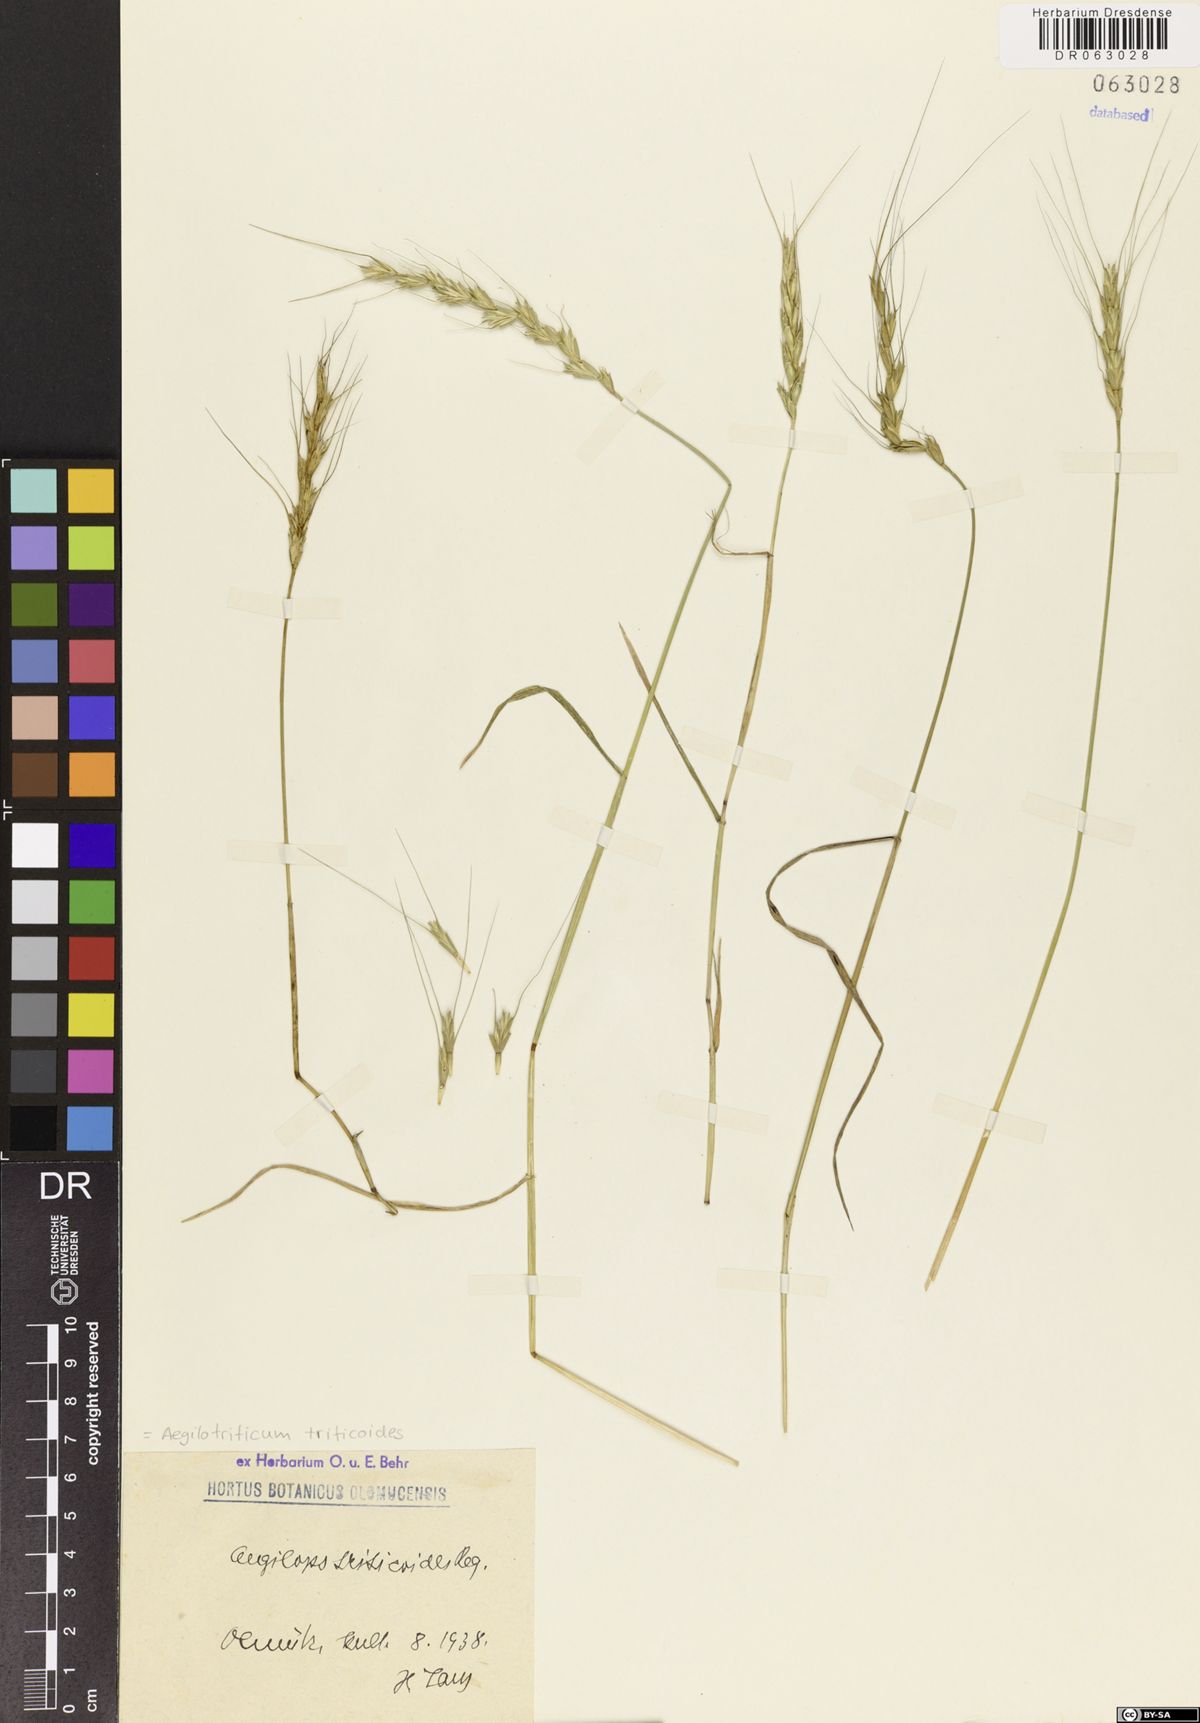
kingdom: Plantae
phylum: Tracheophyta
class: Liliopsida
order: Poales
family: Poaceae
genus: Aegilotriticum
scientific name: Aegilotriticum triticoides
